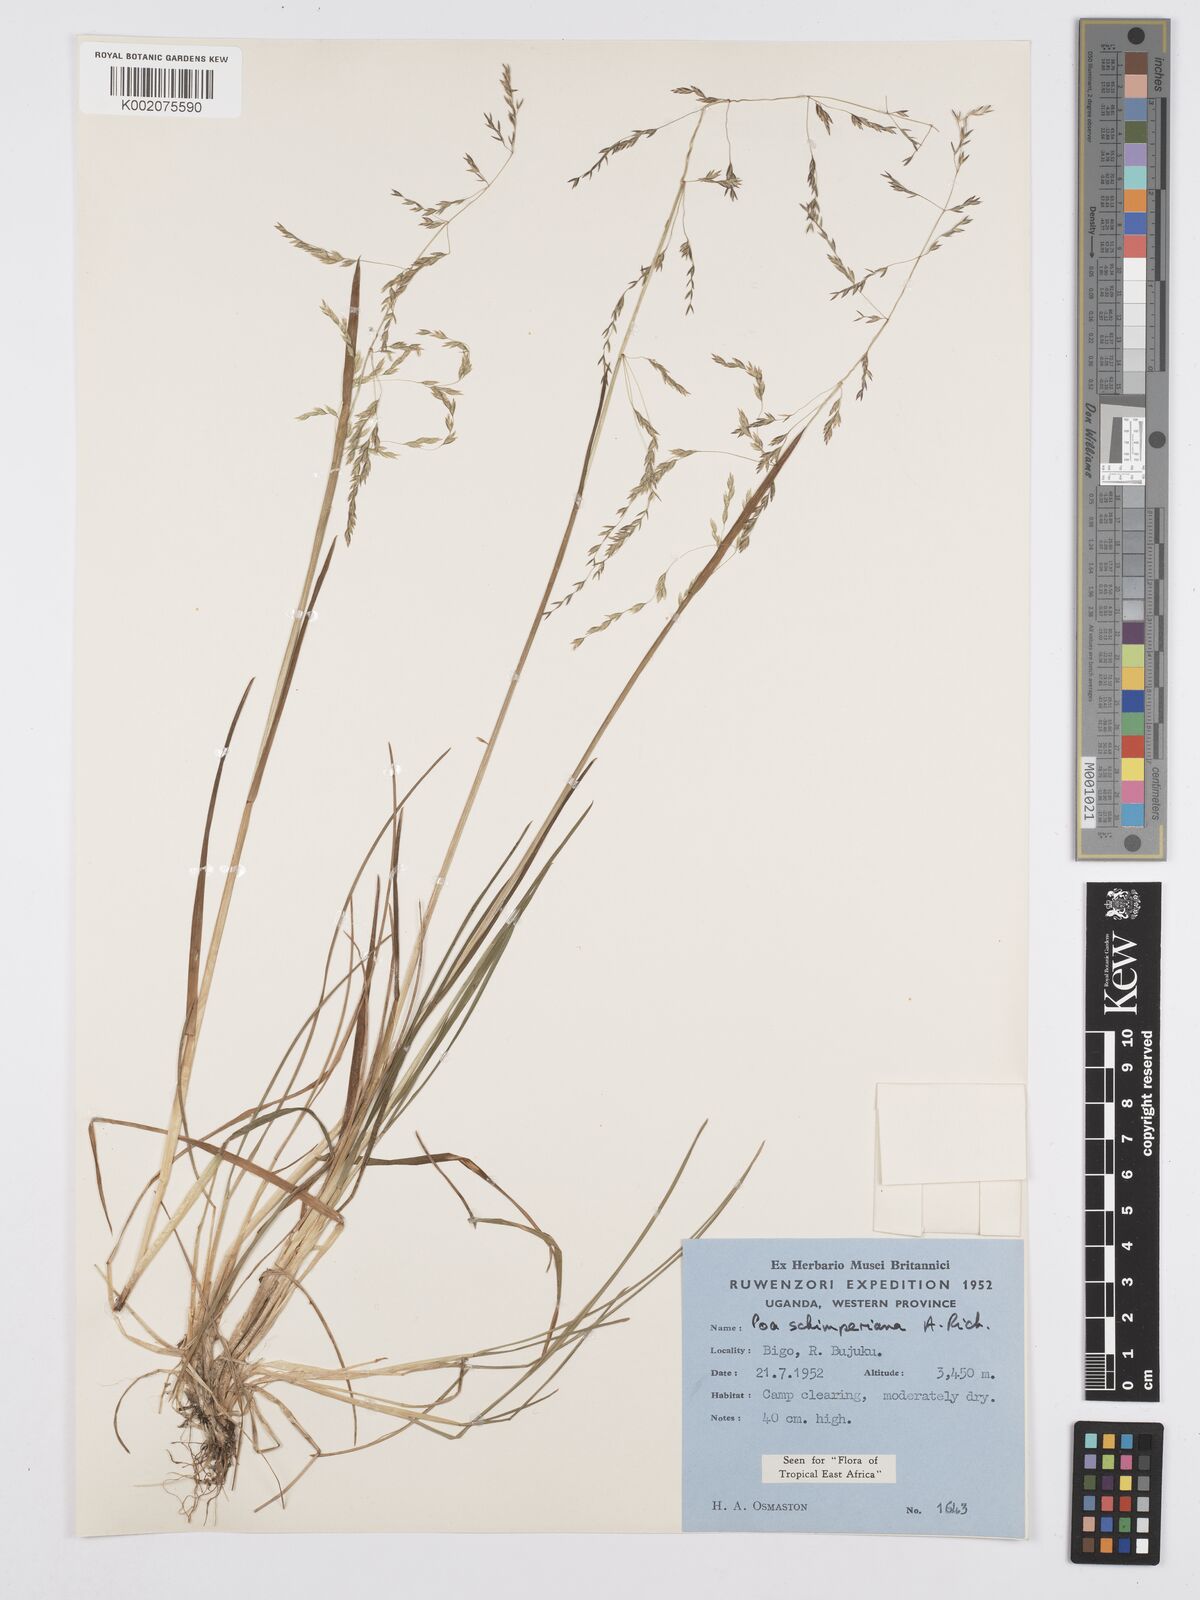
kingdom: Plantae
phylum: Tracheophyta
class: Liliopsida
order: Poales
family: Poaceae
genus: Poa
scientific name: Poa schimperiana
